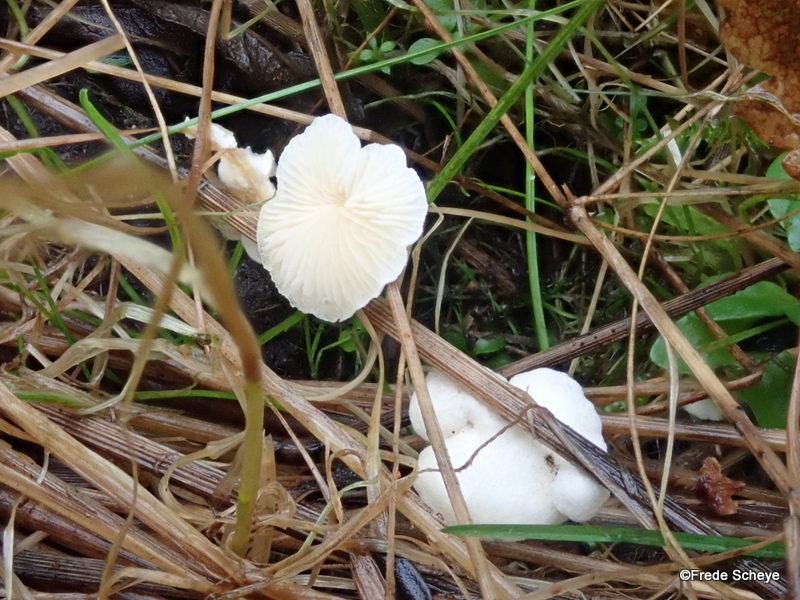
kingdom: Fungi
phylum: Basidiomycota
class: Agaricomycetes
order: Agaricales
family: Crepidotaceae
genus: Crepidotus
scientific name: Crepidotus epibryus
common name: førne-muslingesvamp
